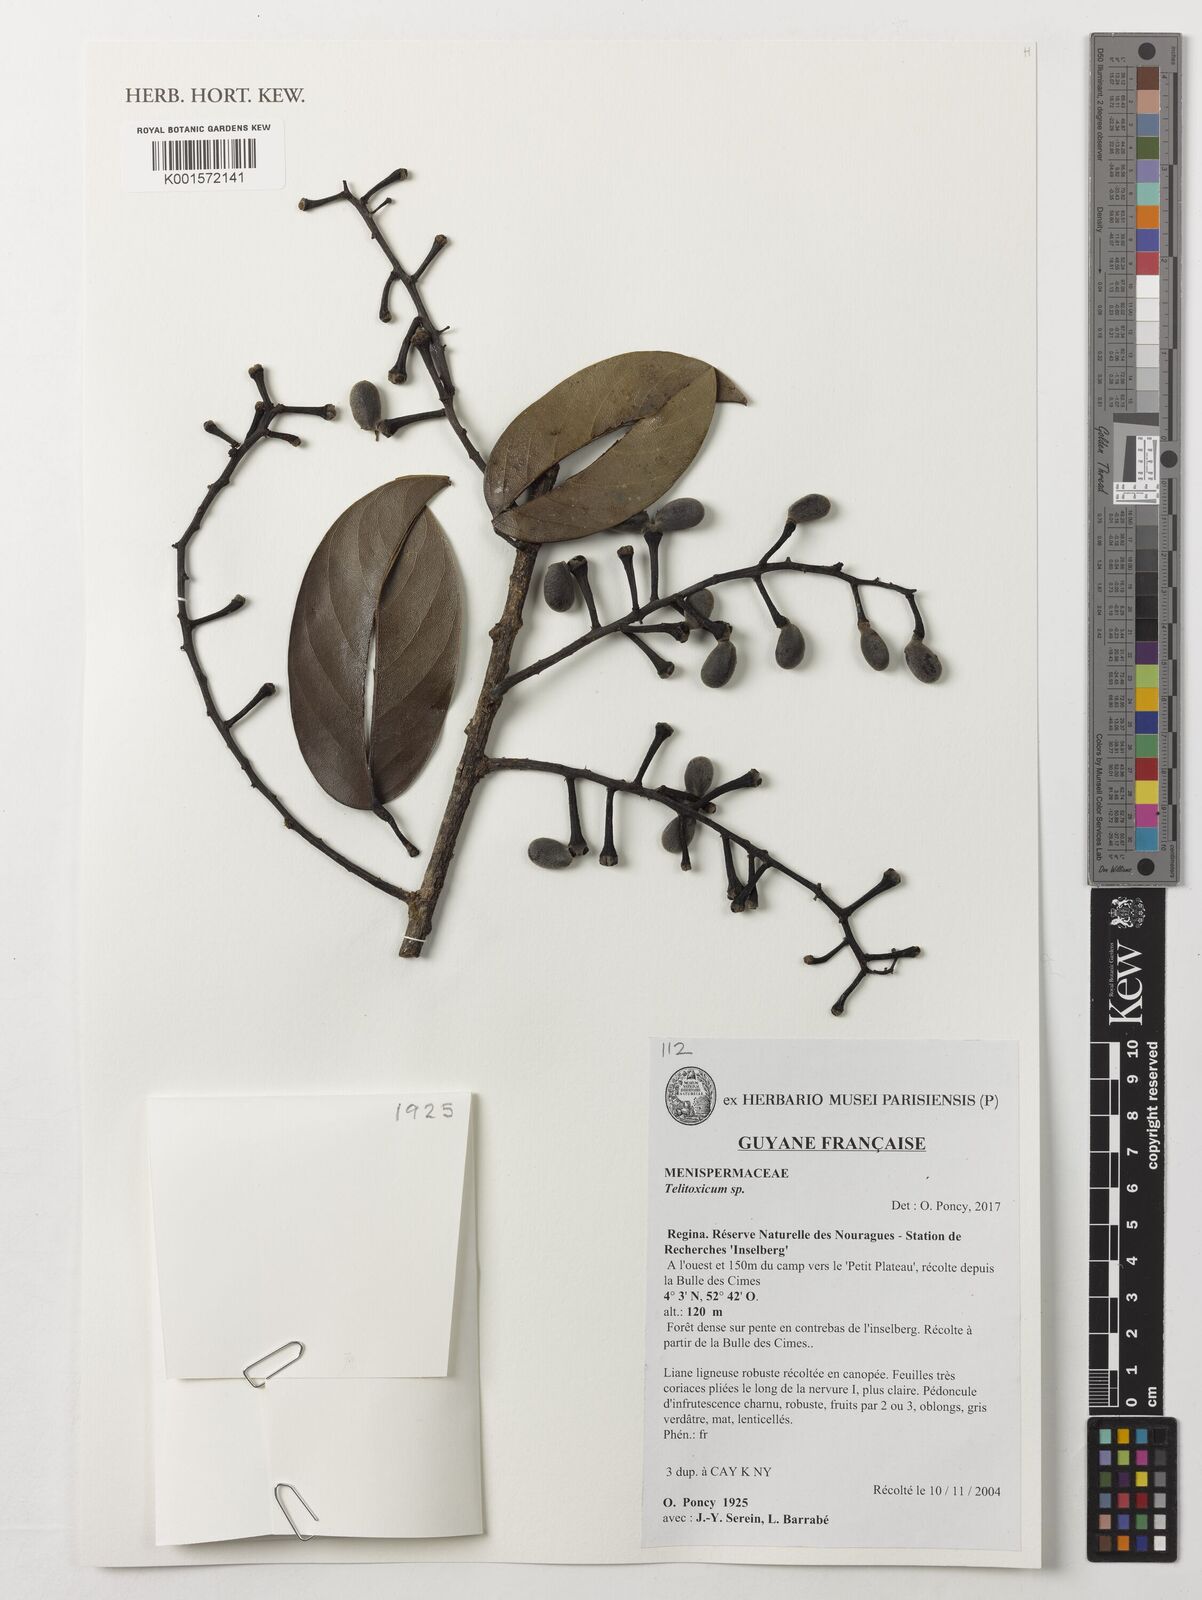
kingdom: Plantae
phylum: Tracheophyta
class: Magnoliopsida
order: Ranunculales
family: Menispermaceae
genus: Telitoxicum
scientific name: Telitoxicum
